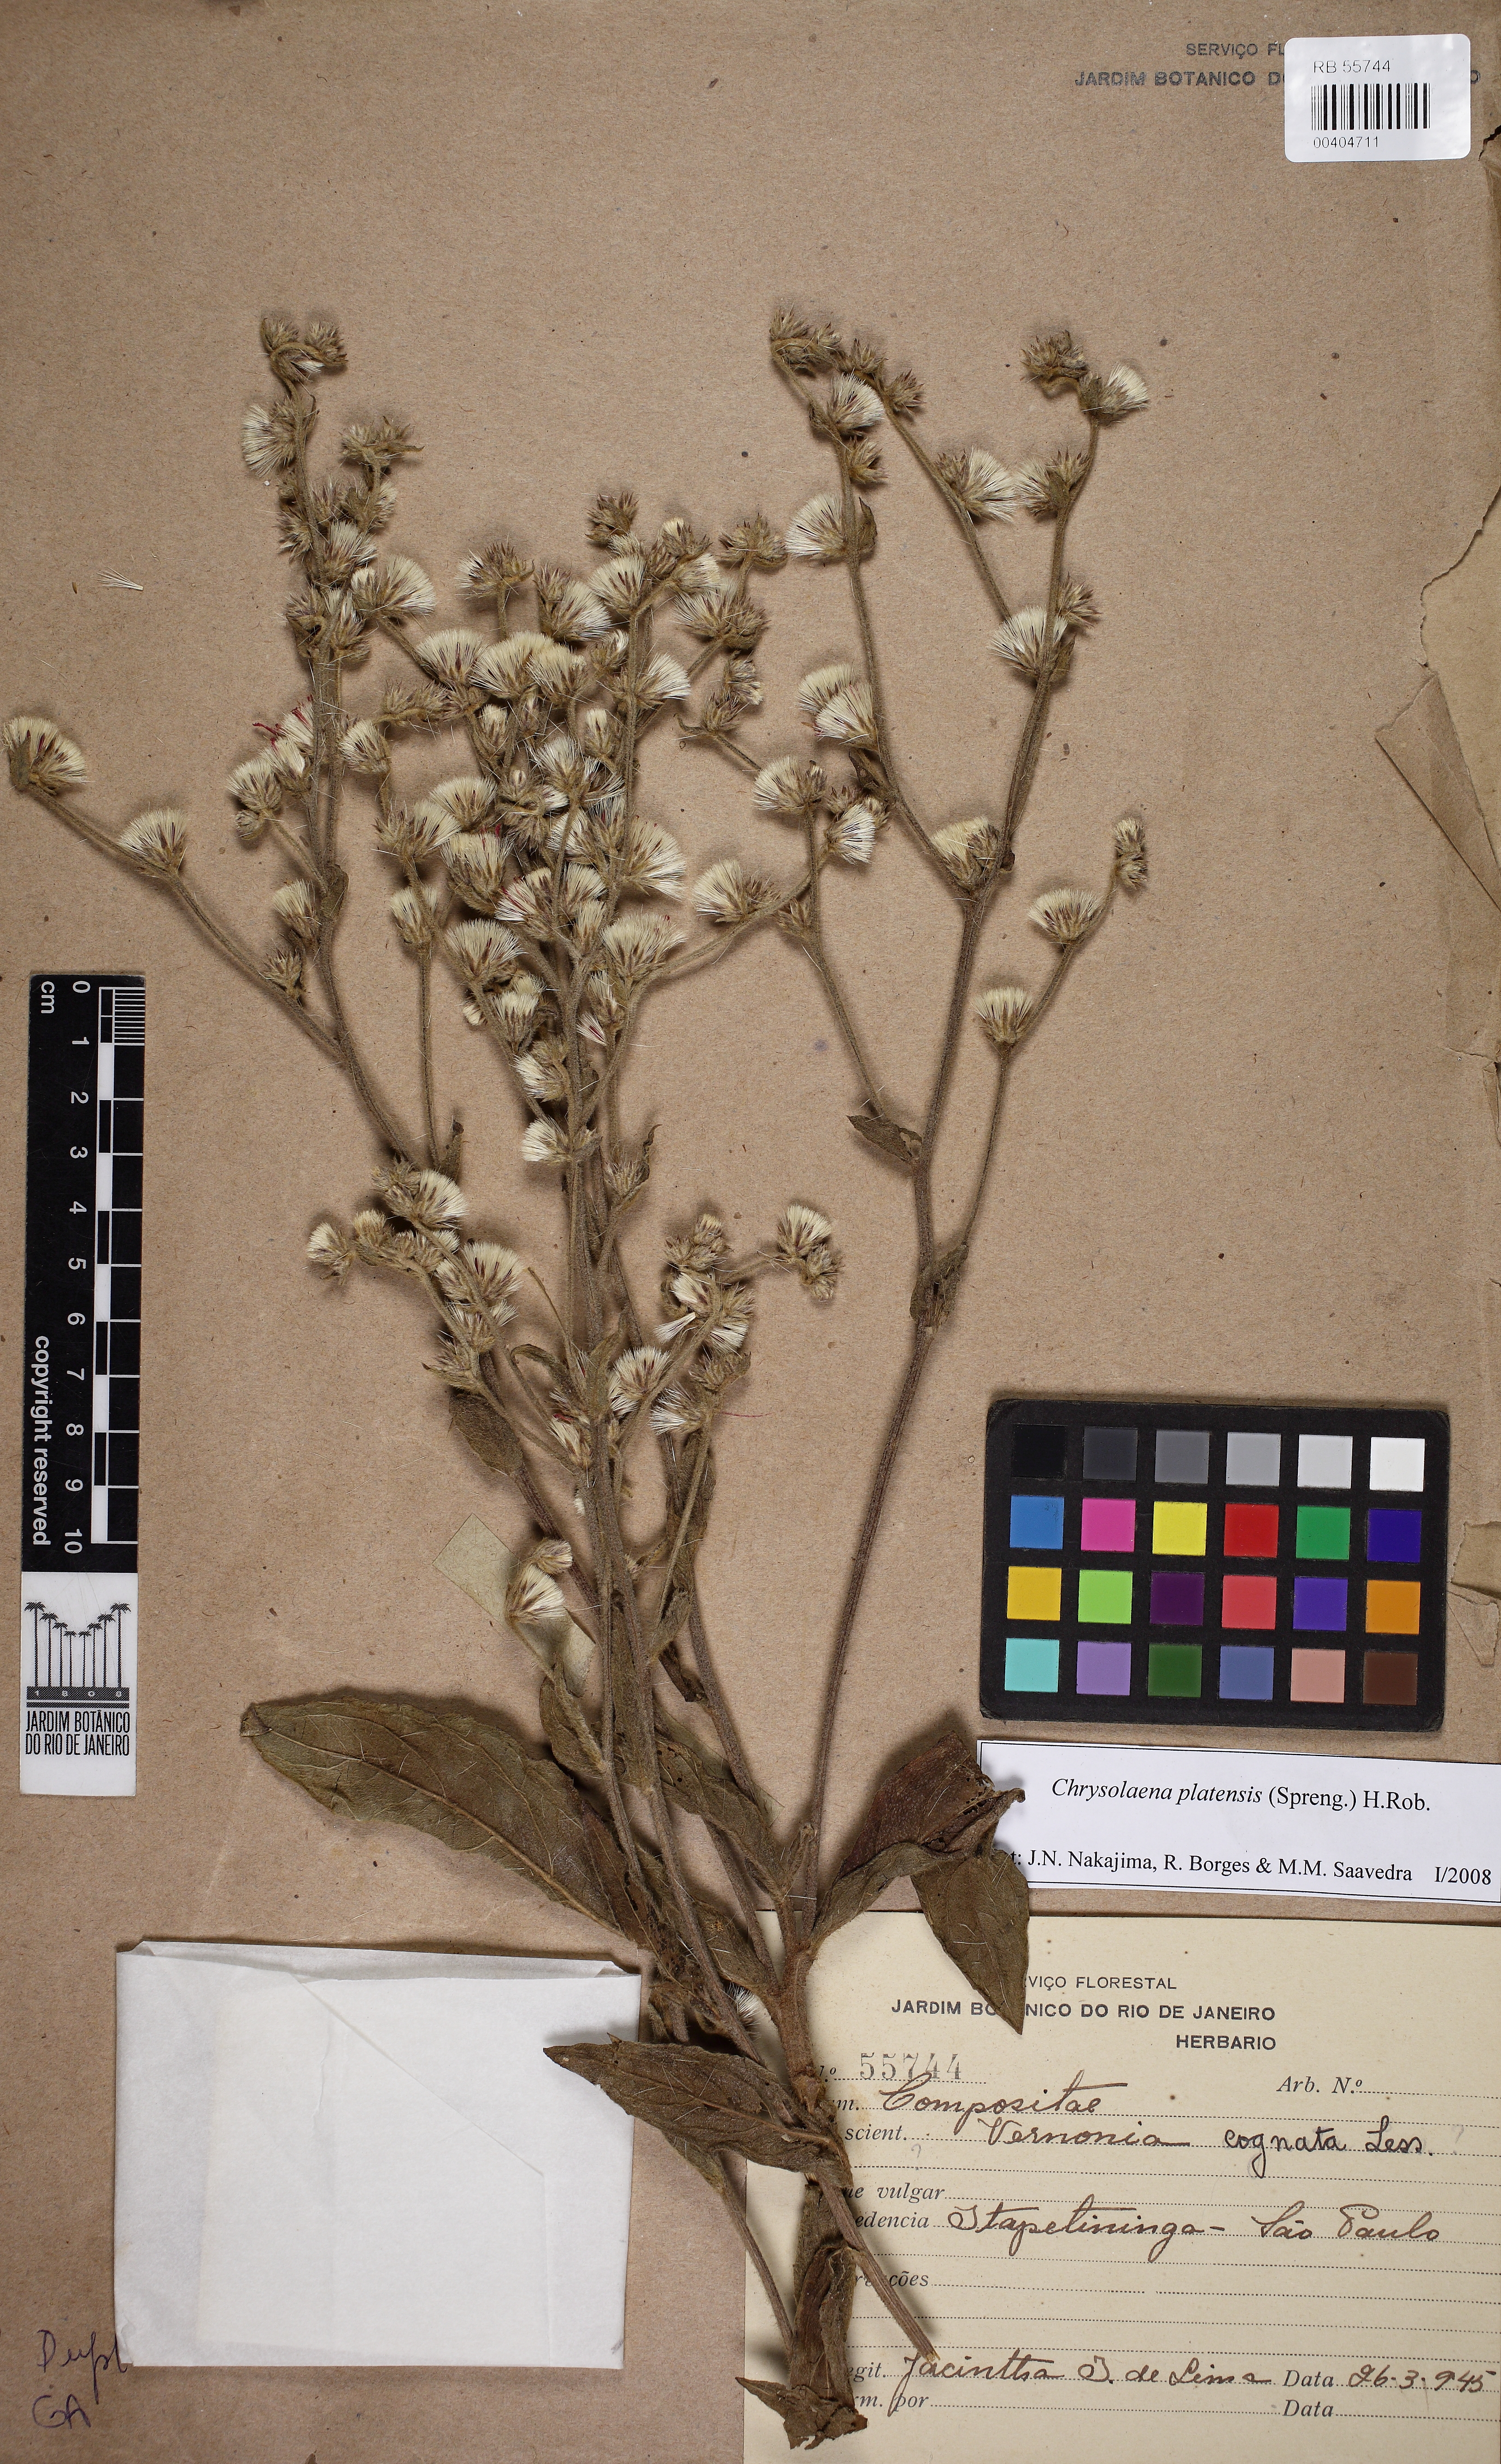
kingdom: Plantae
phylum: Tracheophyta
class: Magnoliopsida
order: Asterales
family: Asteraceae
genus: Chrysolaena
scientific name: Chrysolaena platensis
